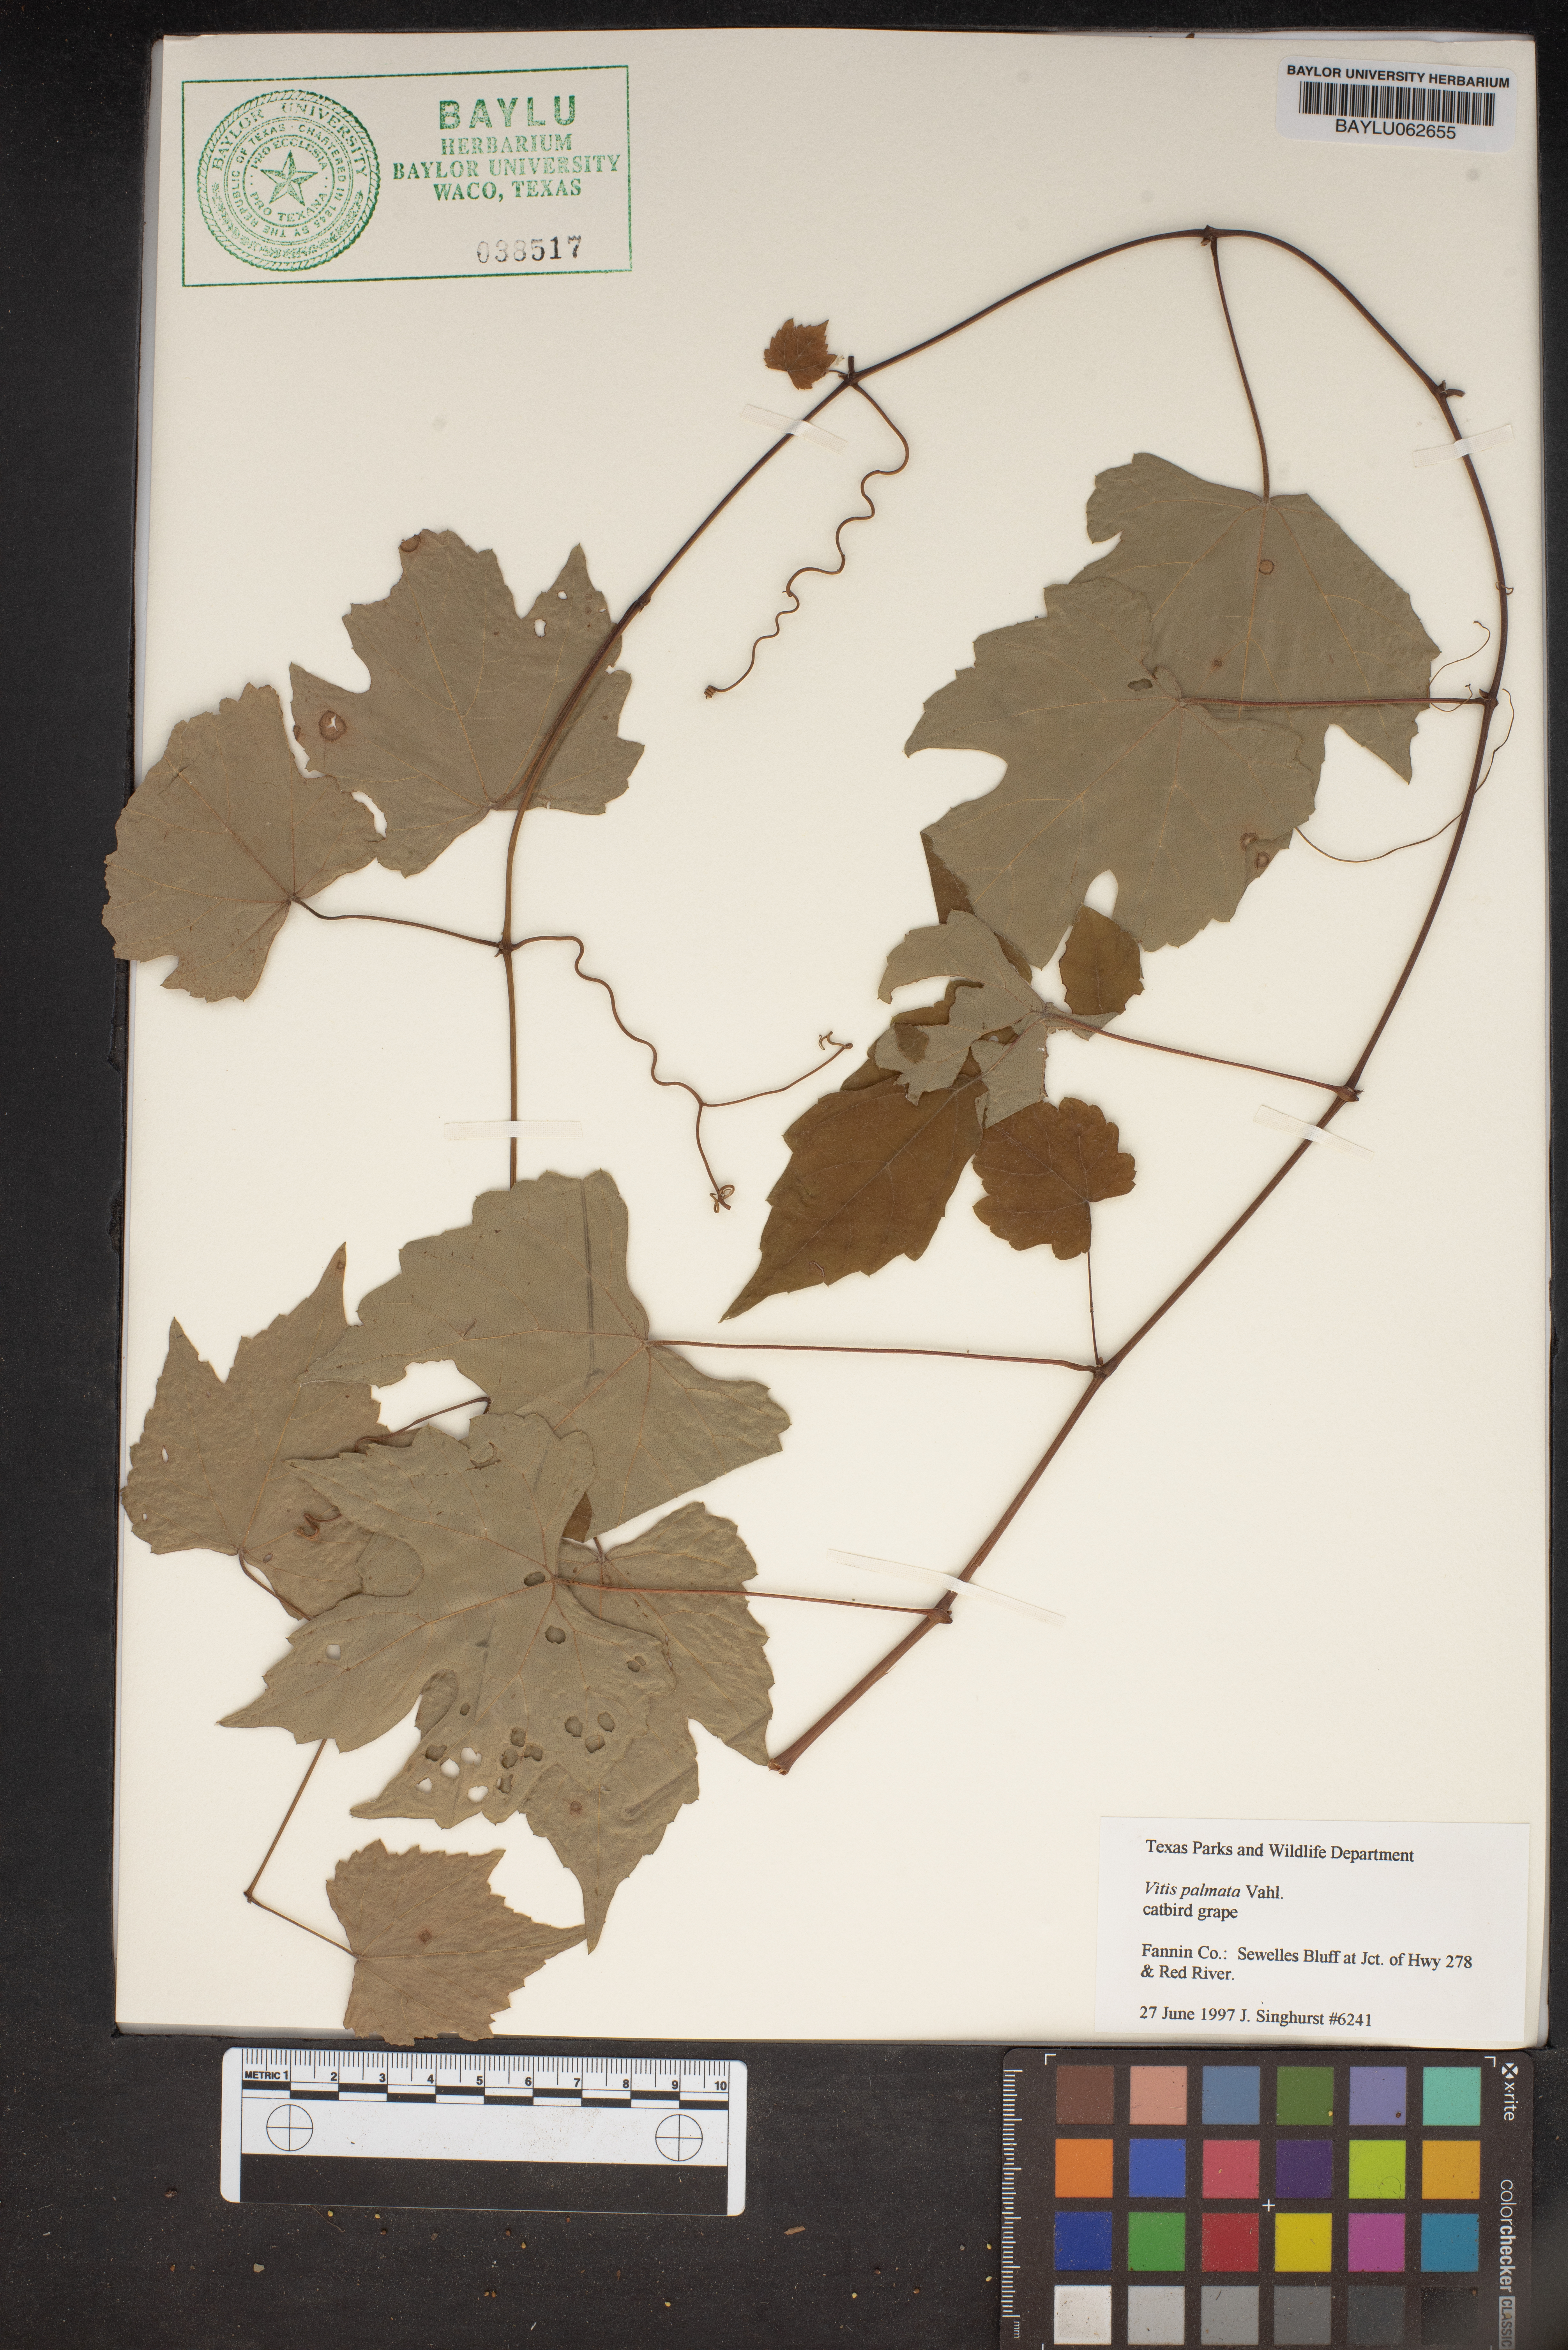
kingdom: Plantae
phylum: Tracheophyta
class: Magnoliopsida
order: Vitales
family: Vitaceae
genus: Vitis
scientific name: Vitis palmata
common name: Catbird grape
